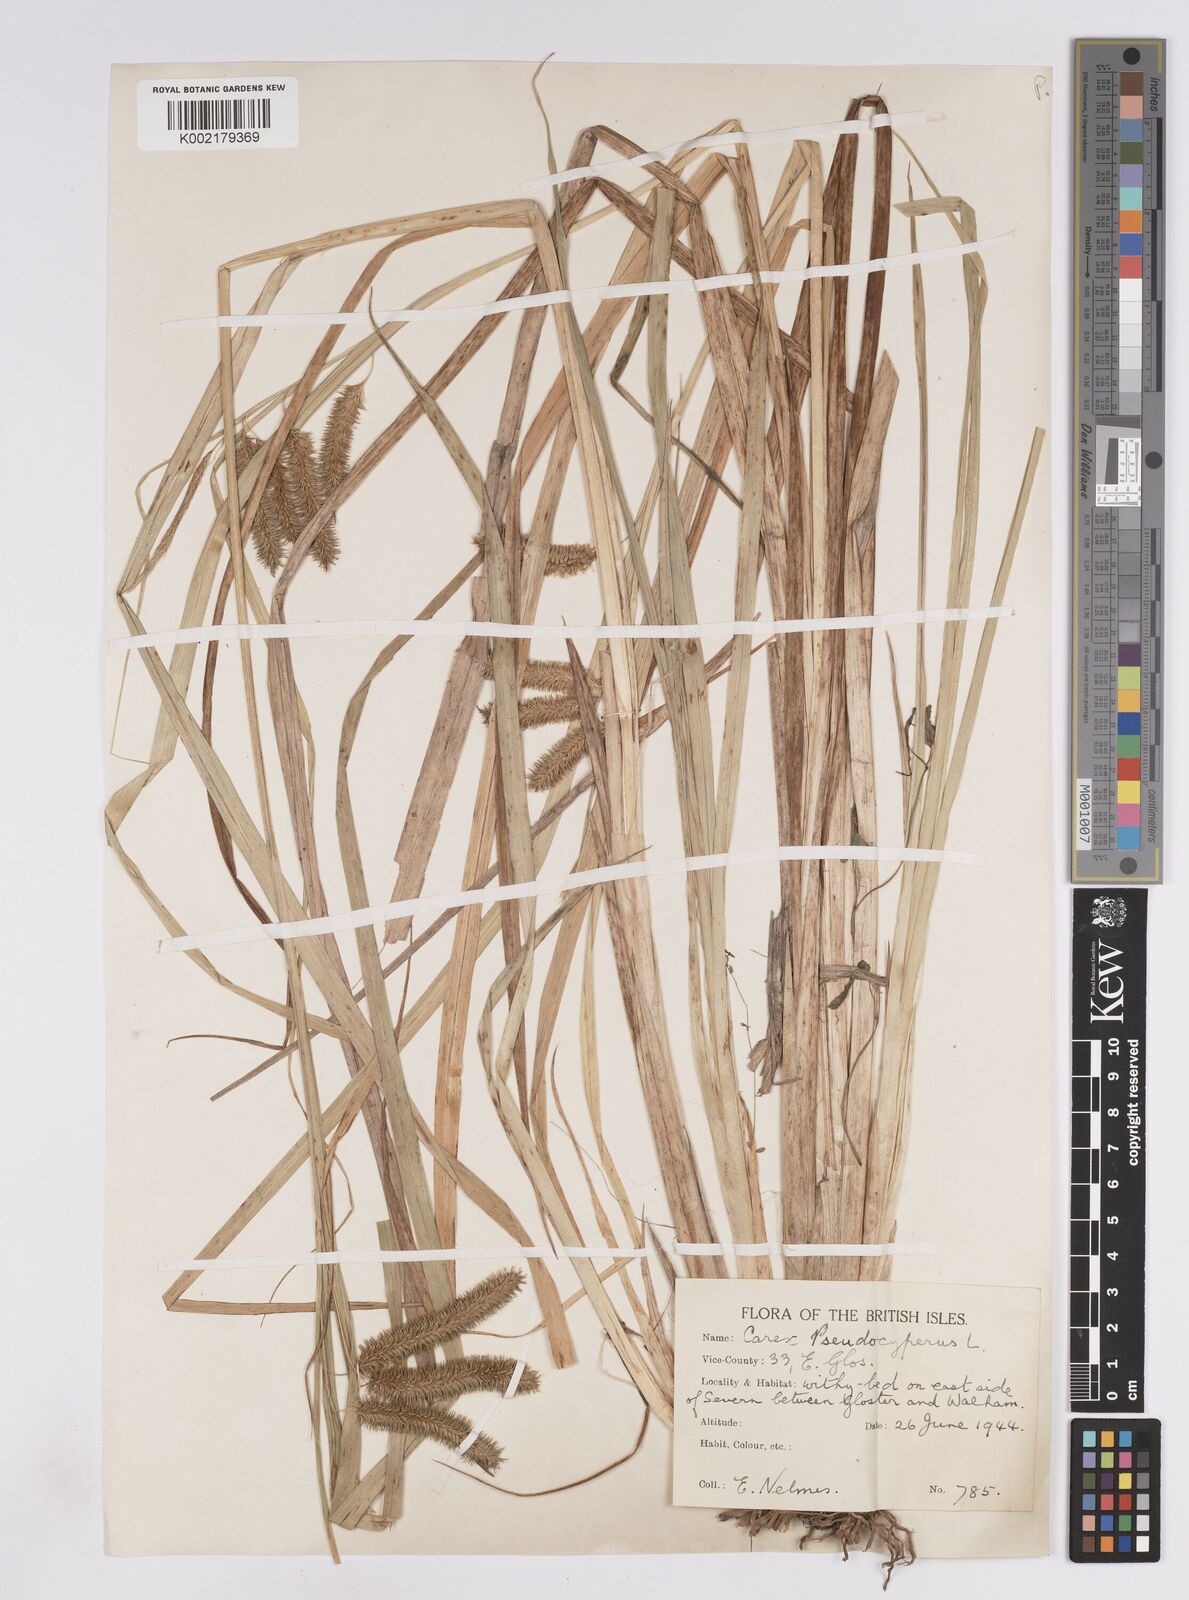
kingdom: Plantae
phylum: Tracheophyta
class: Liliopsida
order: Poales
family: Cyperaceae
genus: Carex
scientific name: Carex pseudocyperus
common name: Cyperus sedge
